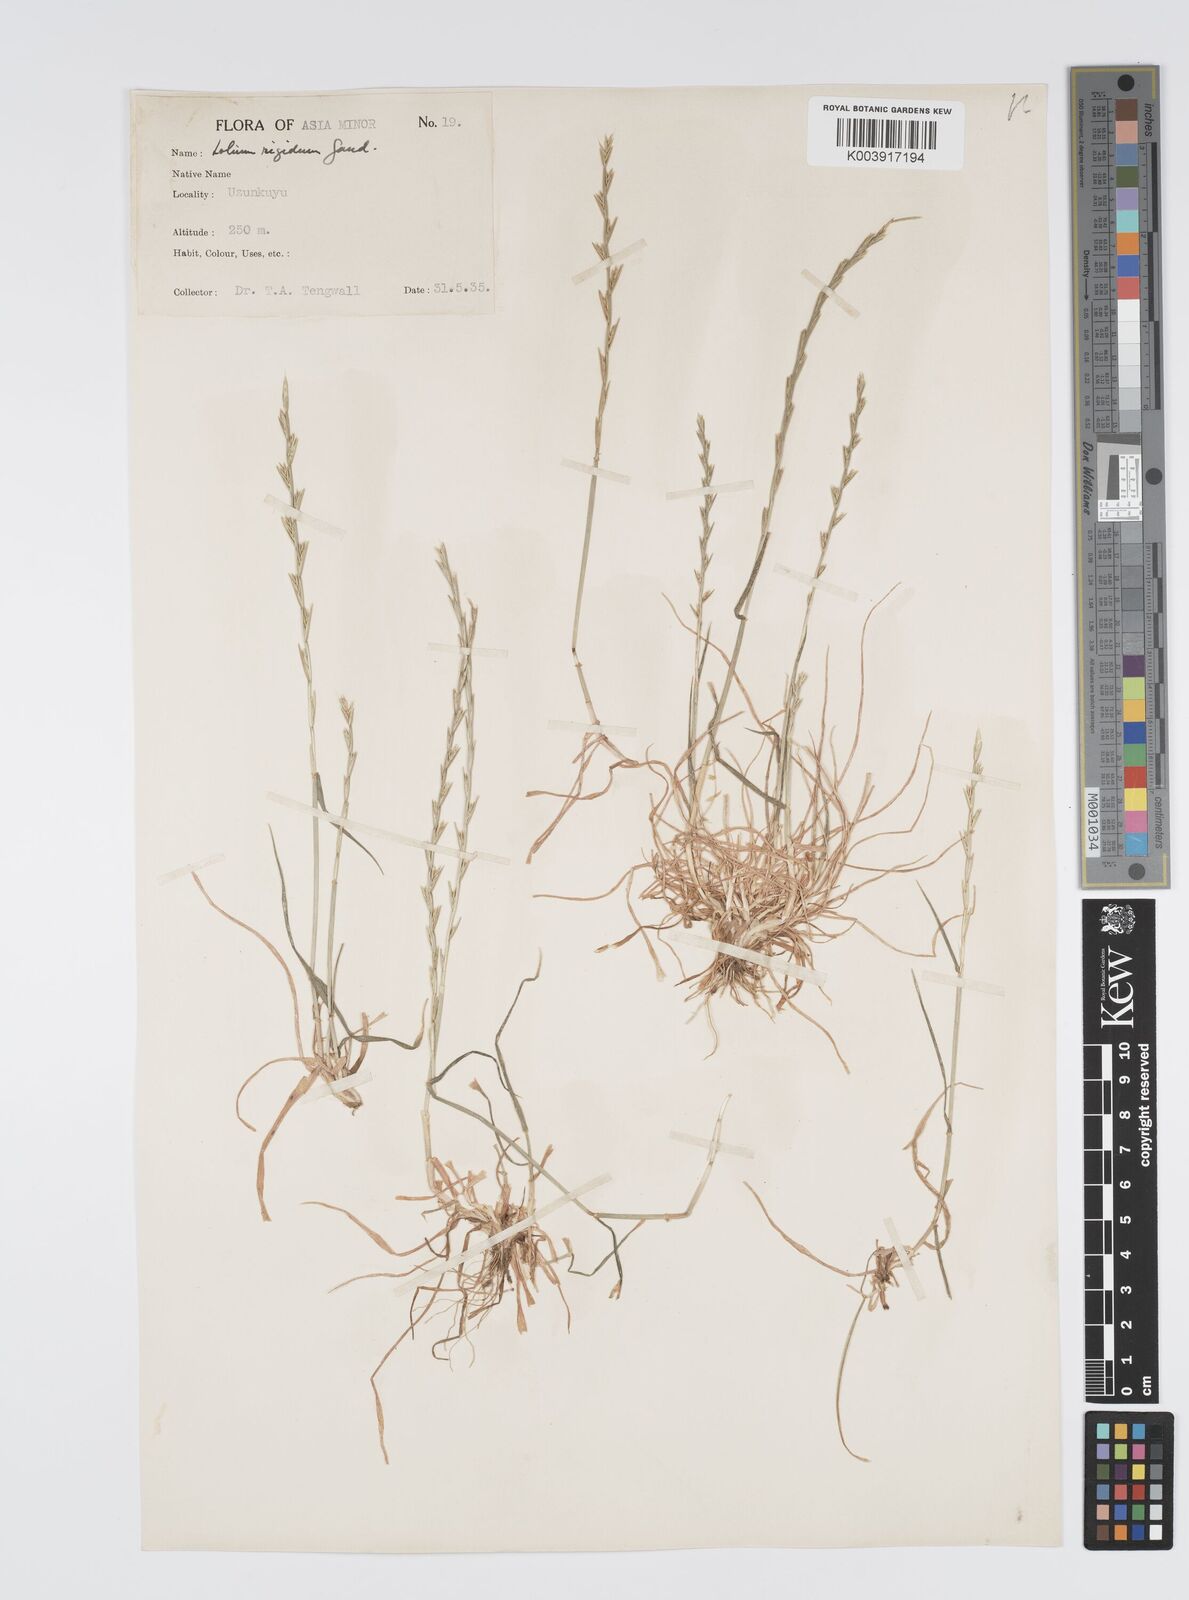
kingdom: Plantae
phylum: Tracheophyta
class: Liliopsida
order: Poales
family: Poaceae
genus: Lolium
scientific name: Lolium rigidum
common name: Wimmera ryegrass
